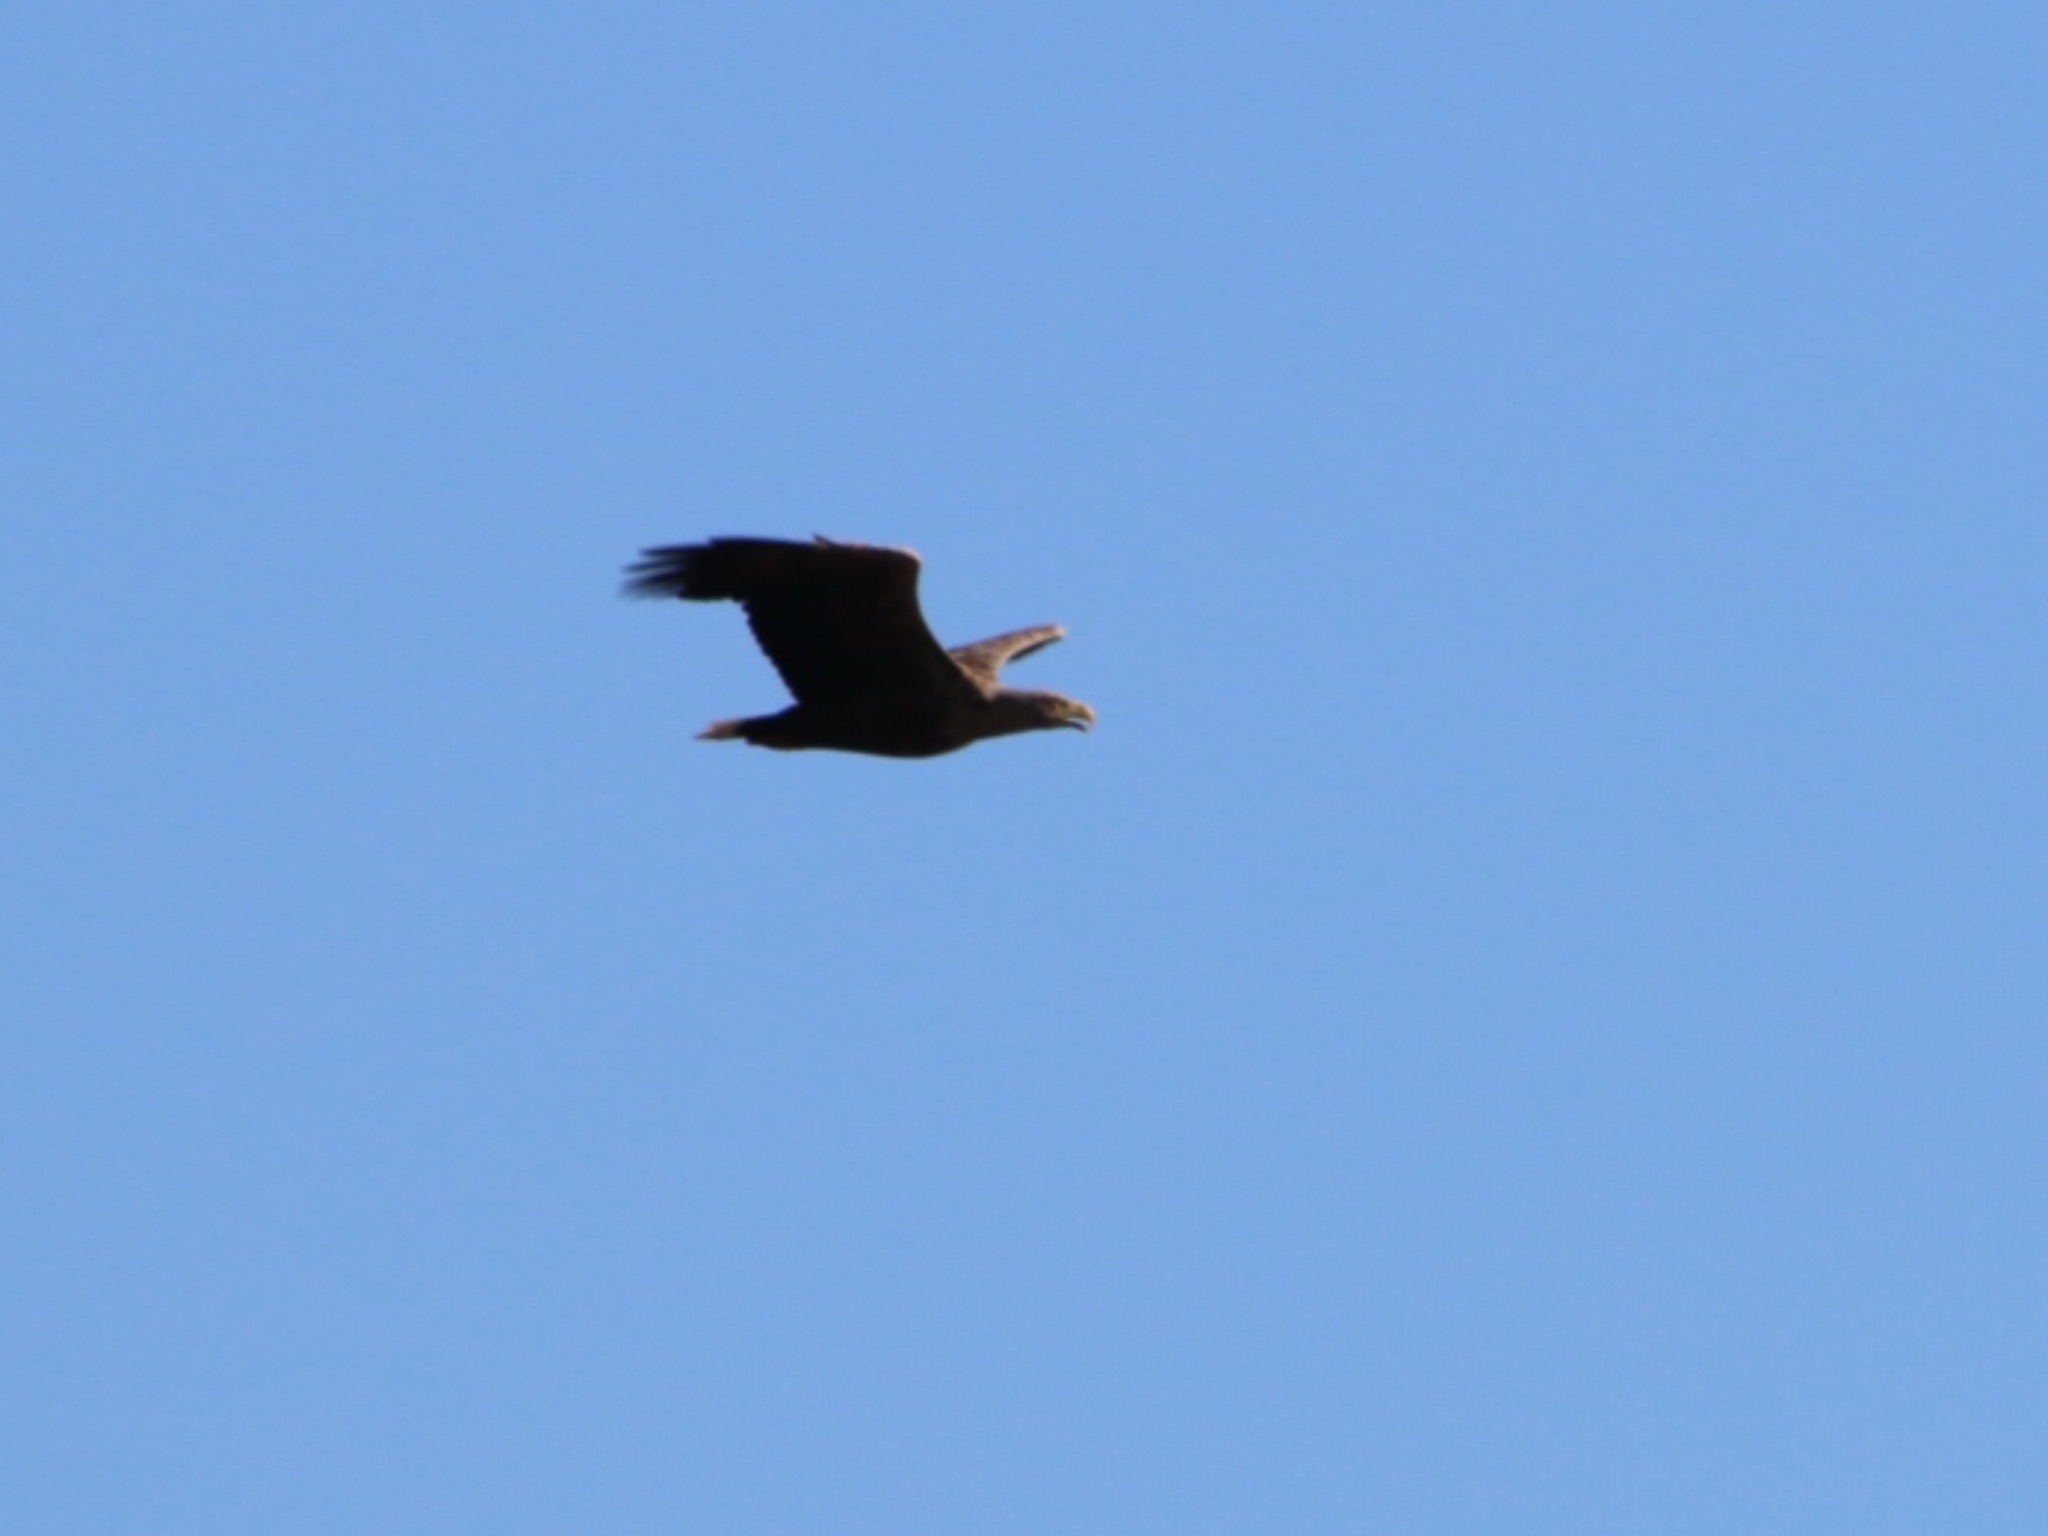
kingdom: Animalia
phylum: Chordata
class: Aves
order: Accipitriformes
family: Accipitridae
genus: Haliaeetus
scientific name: Haliaeetus albicilla
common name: Havørn
